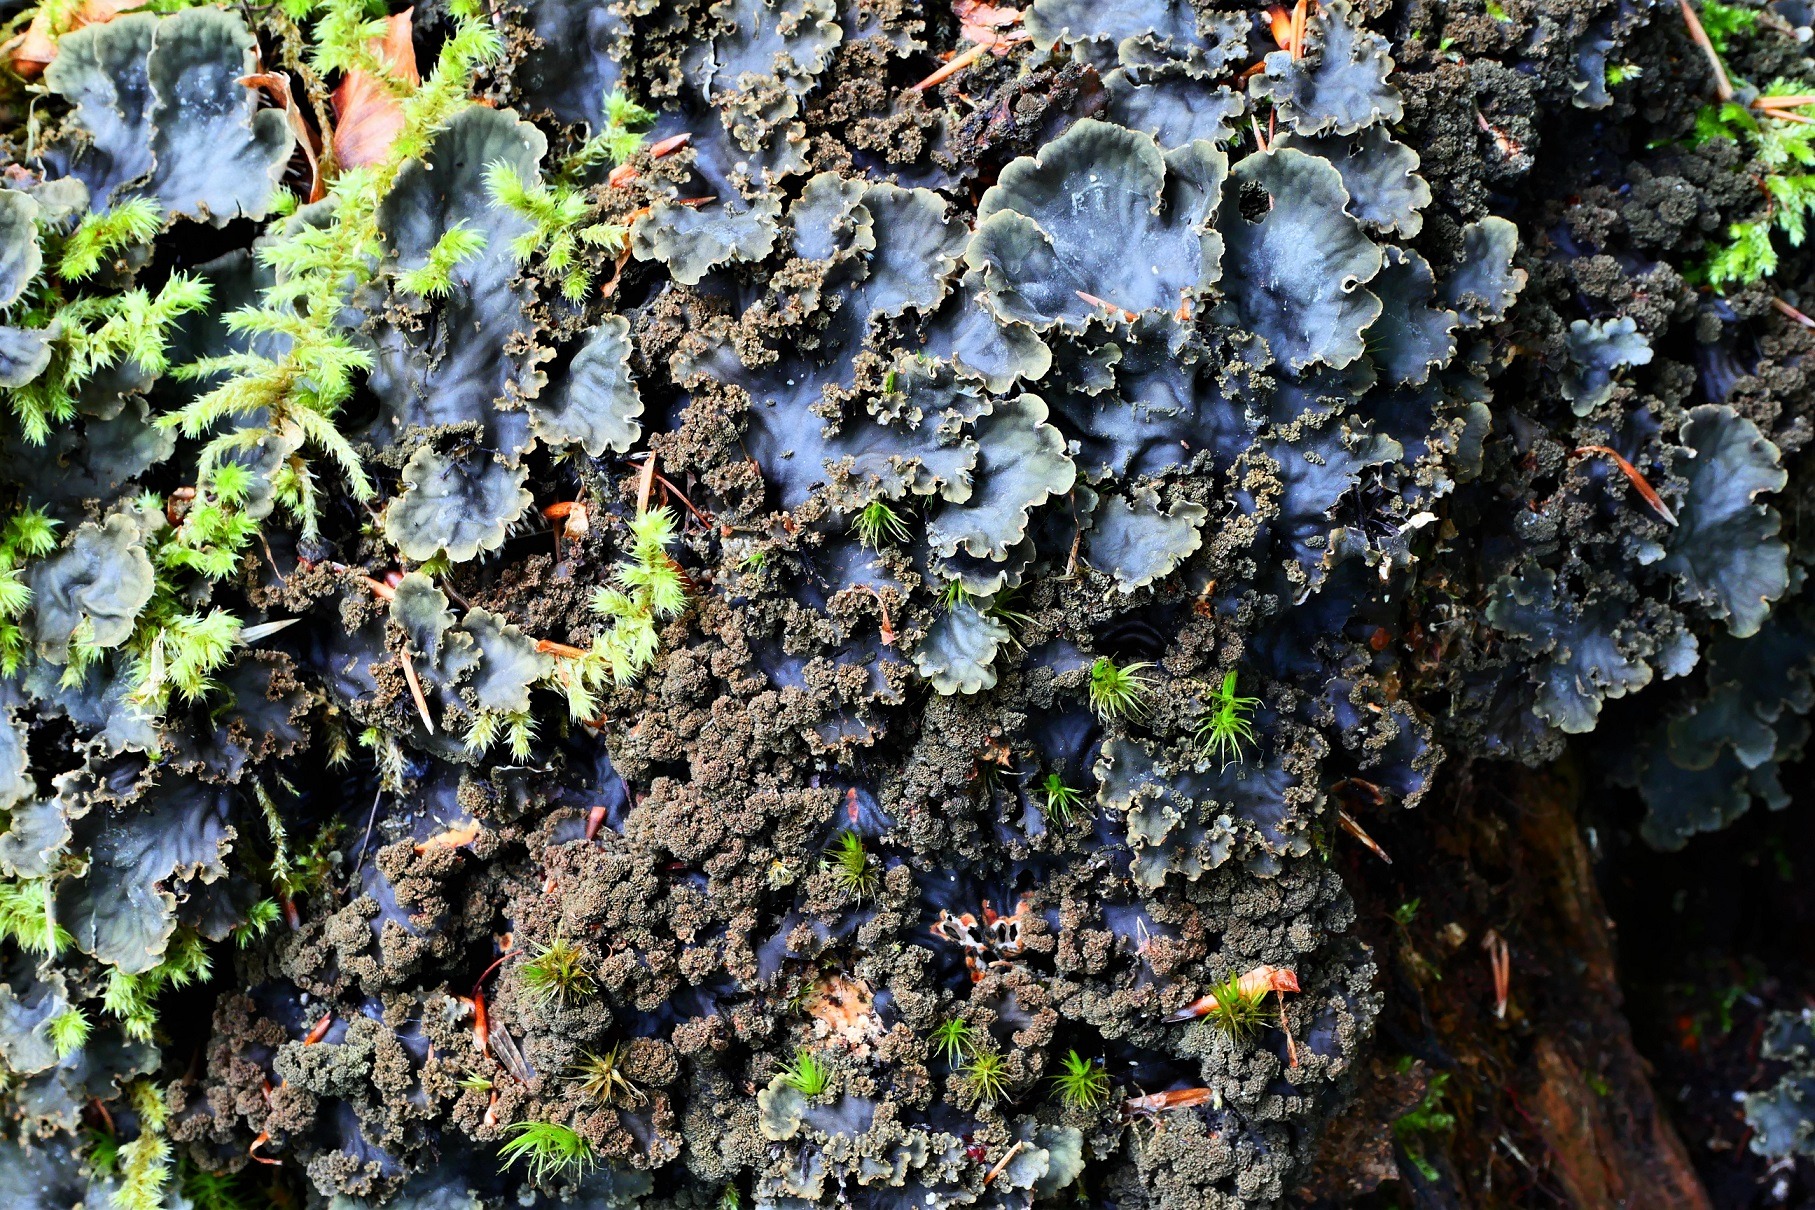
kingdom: Fungi
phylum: Ascomycota
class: Lecanoromycetes
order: Peltigerales
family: Peltigeraceae
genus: Peltigera
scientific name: Peltigera praetextata
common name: Kruset skjoldlav
